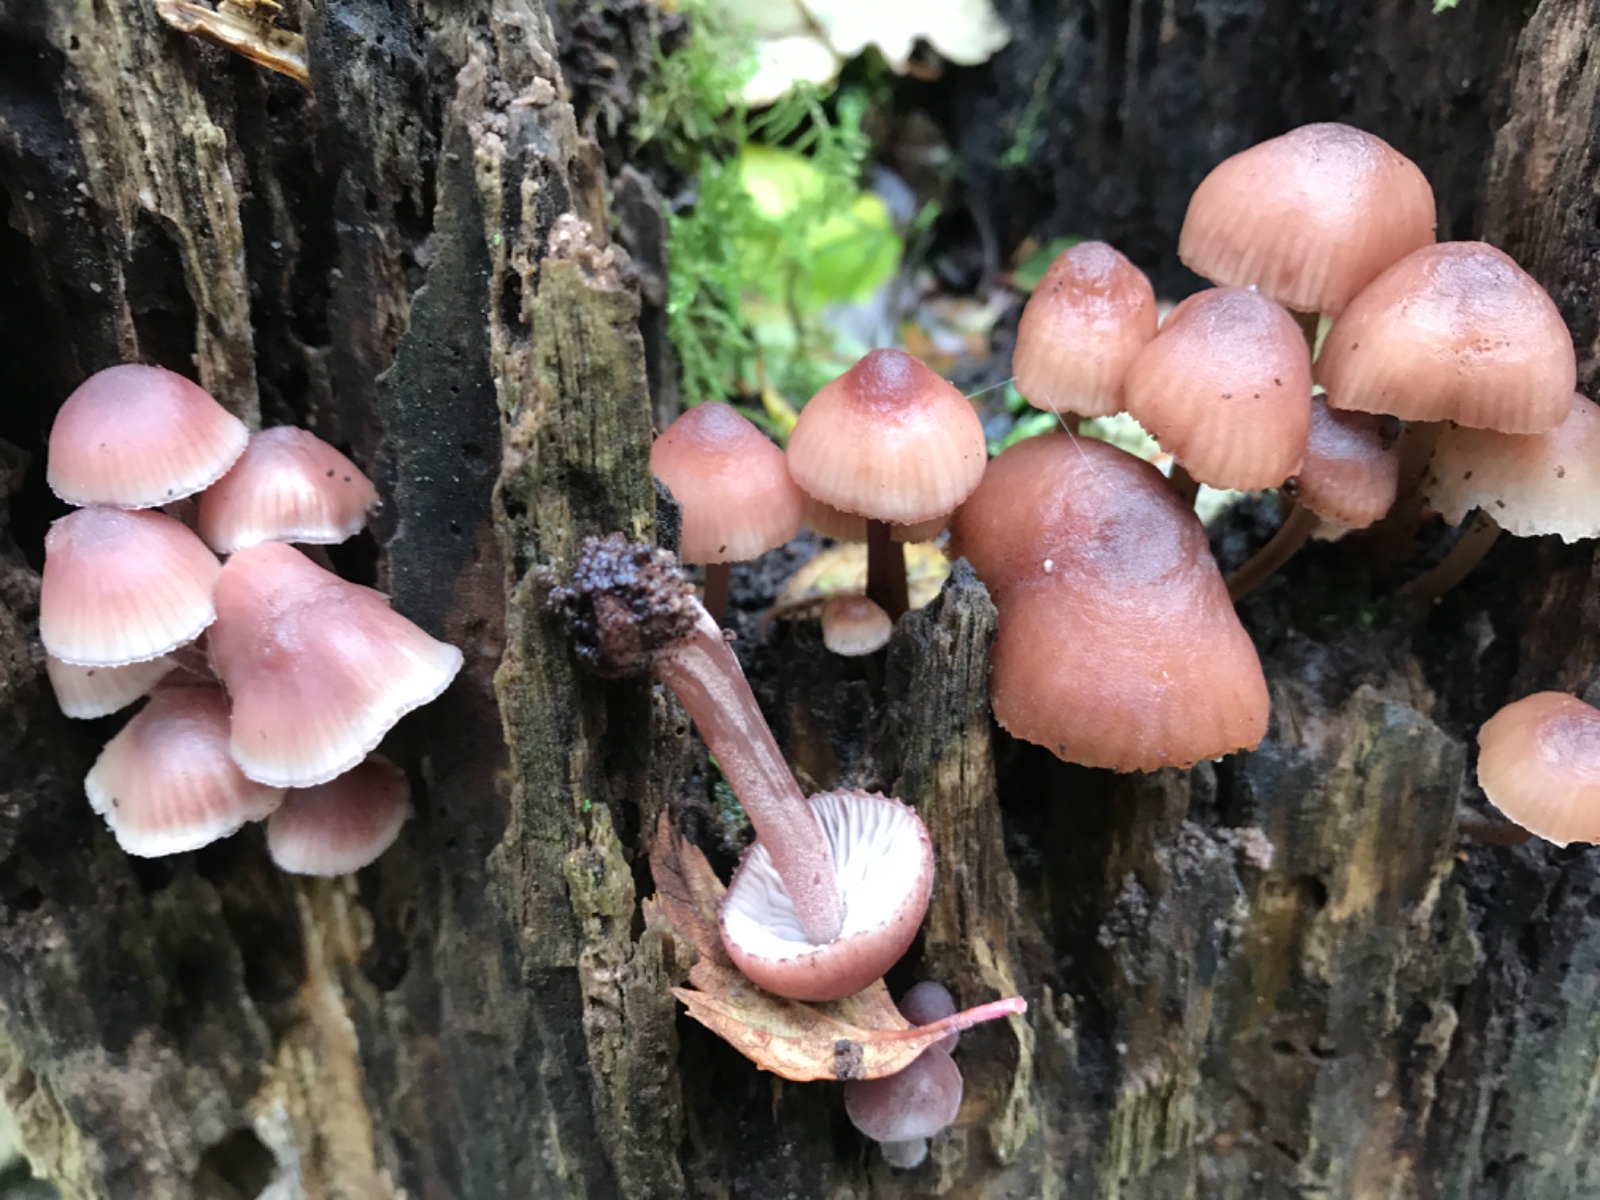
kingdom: Fungi
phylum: Basidiomycota
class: Agaricomycetes
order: Agaricales
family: Mycenaceae
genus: Mycena
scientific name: Mycena haematopus
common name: blødende huesvamp
